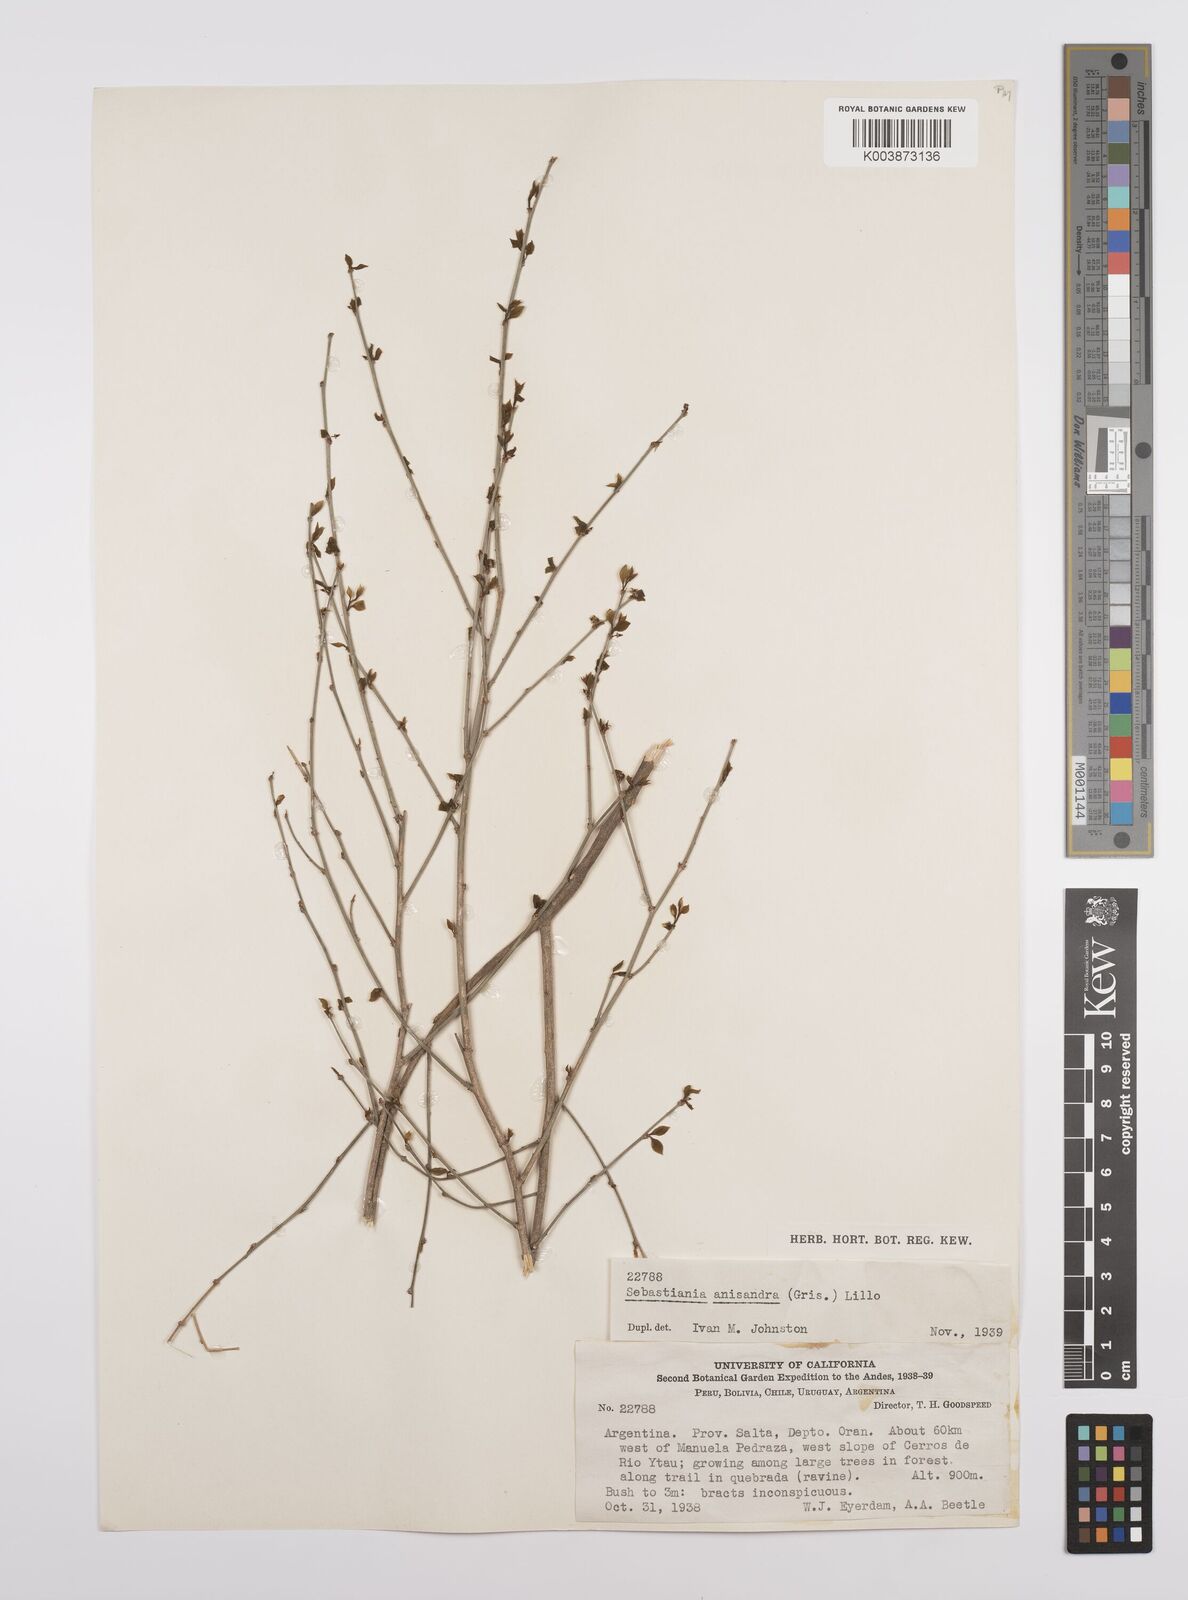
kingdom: Plantae
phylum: Tracheophyta
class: Magnoliopsida
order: Malpighiales
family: Euphorbiaceae
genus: Sebastiania
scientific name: Sebastiania brasiliensis
